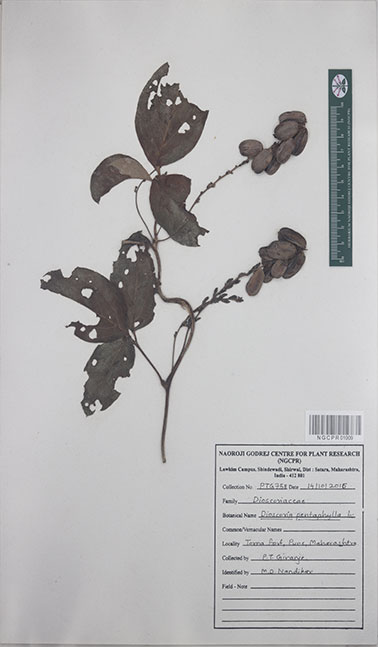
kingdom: Plantae
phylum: Tracheophyta
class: Liliopsida
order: Dioscoreales
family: Dioscoreaceae
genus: Dioscorea
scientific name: Dioscorea pentaphylla
